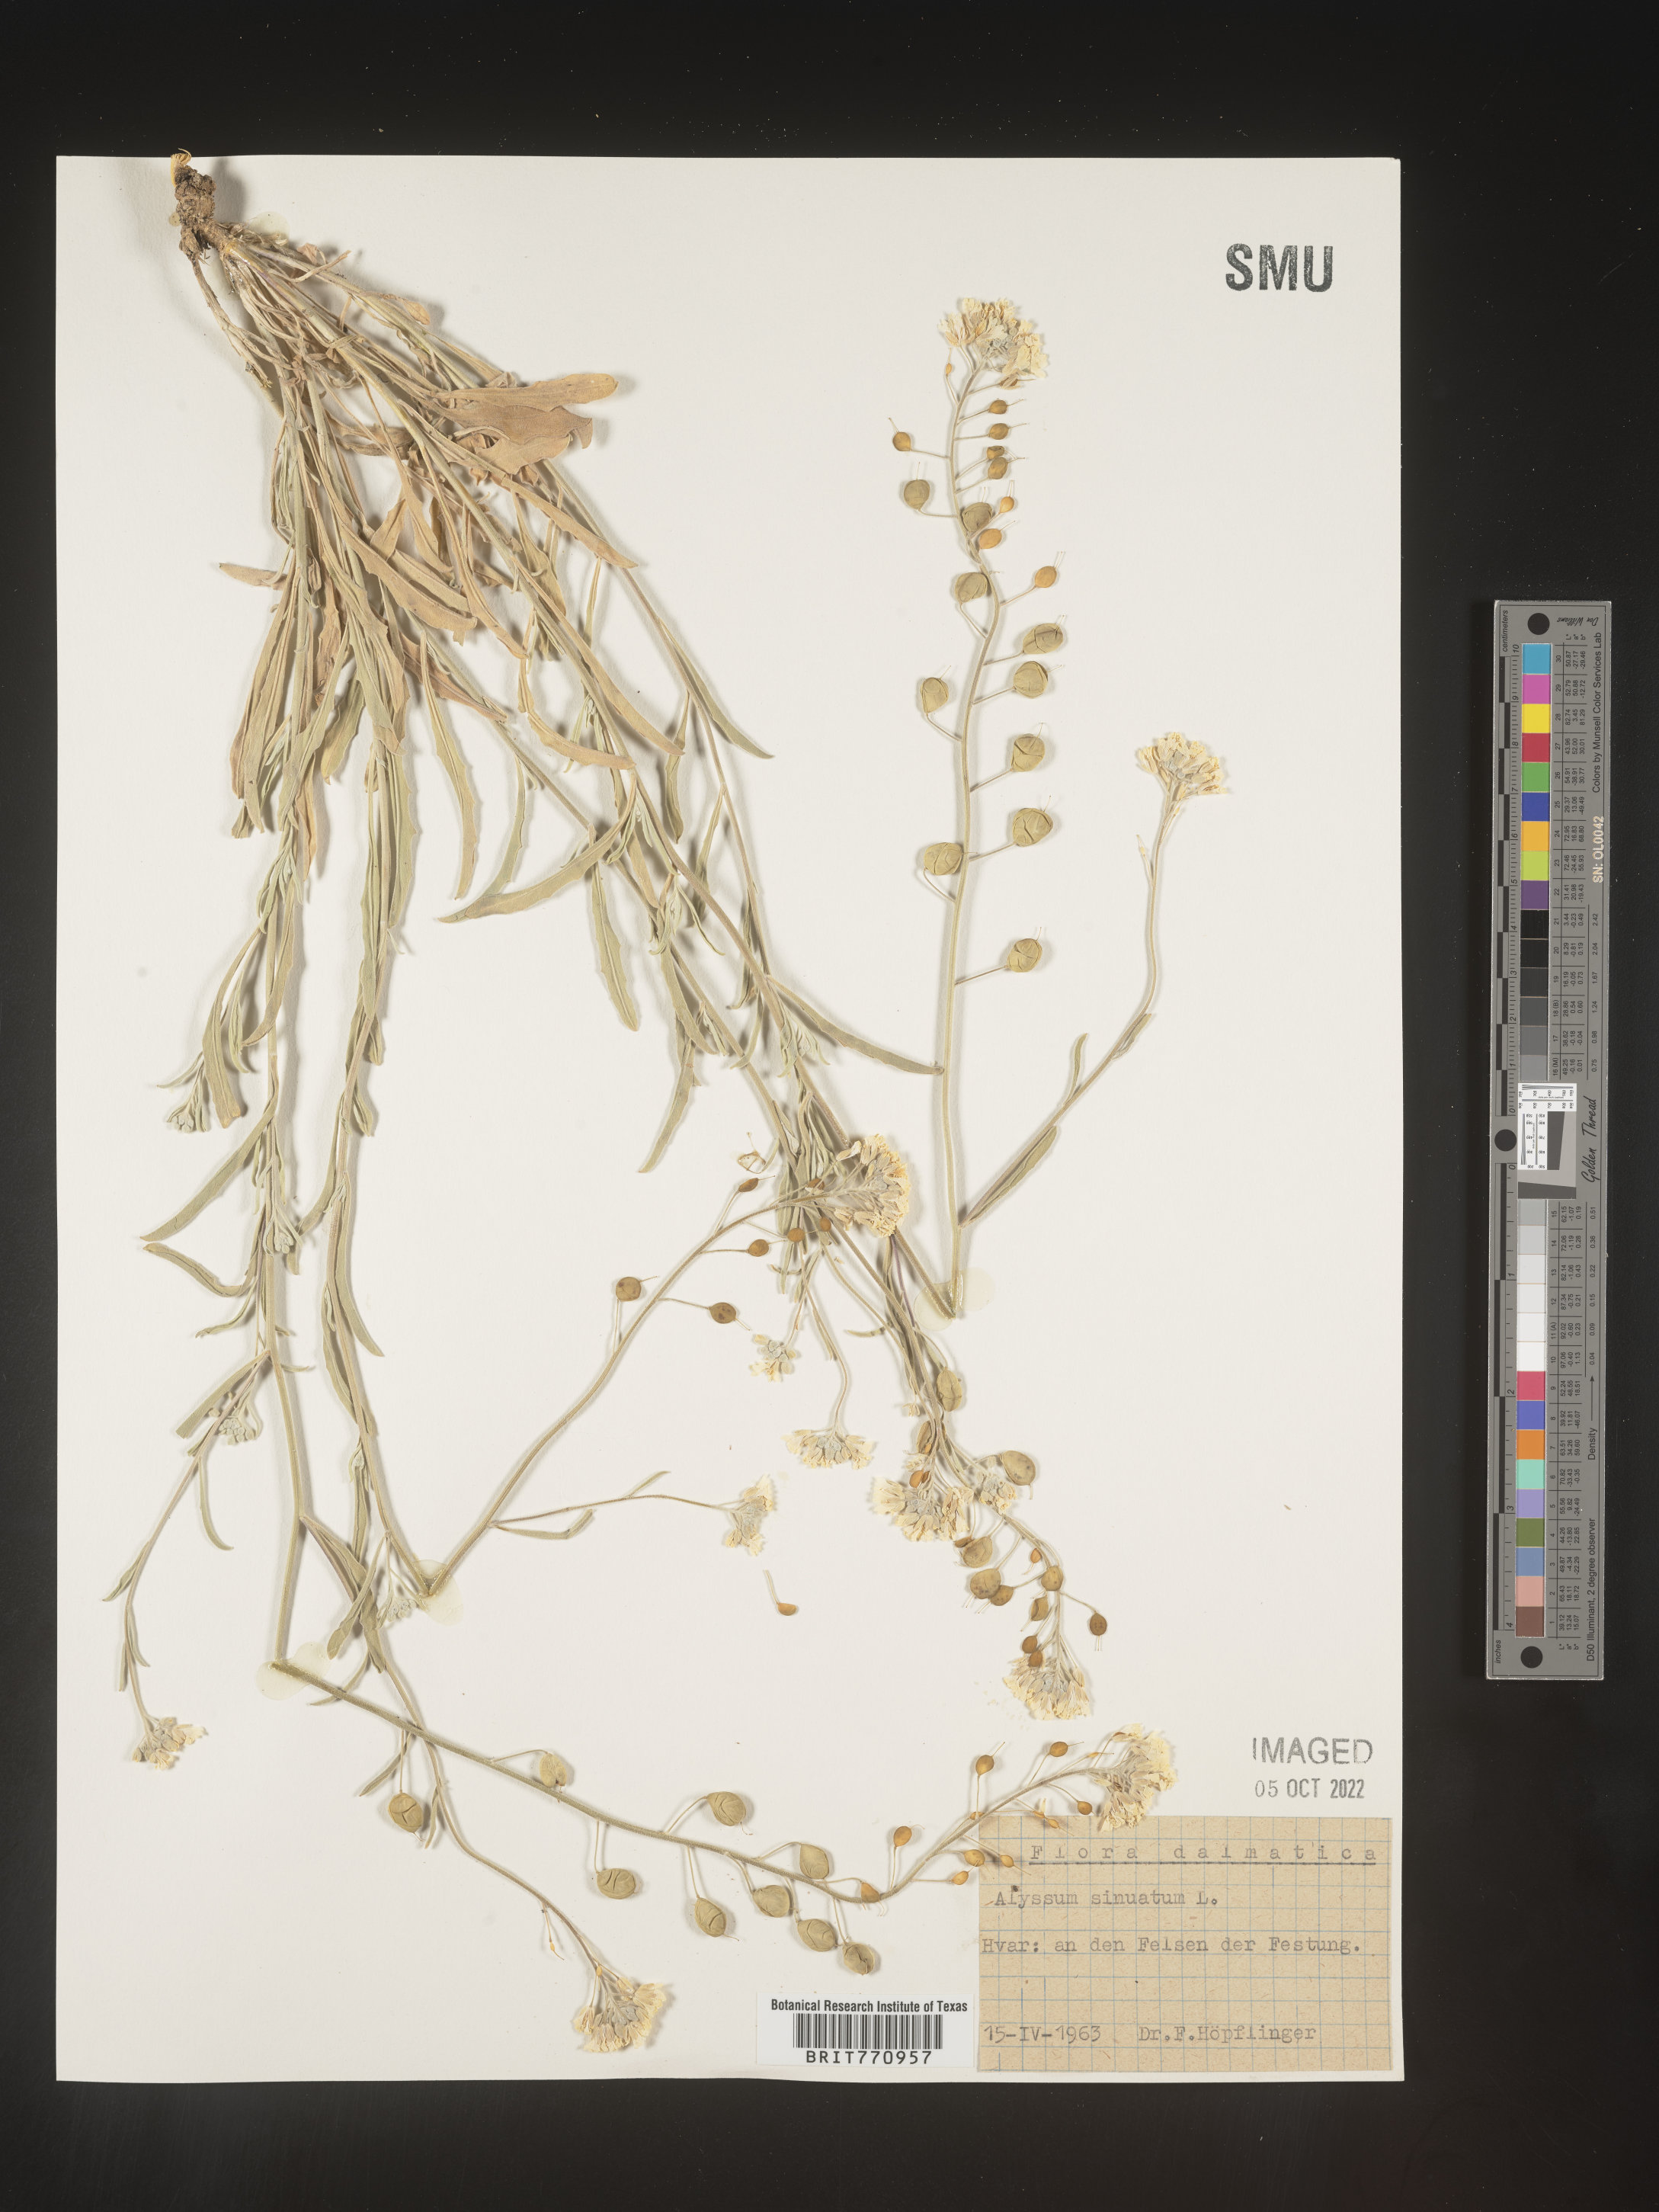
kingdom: Plantae
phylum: Tracheophyta
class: Magnoliopsida
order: Brassicales
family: Brassicaceae
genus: Alyssum
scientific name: Alyssum
